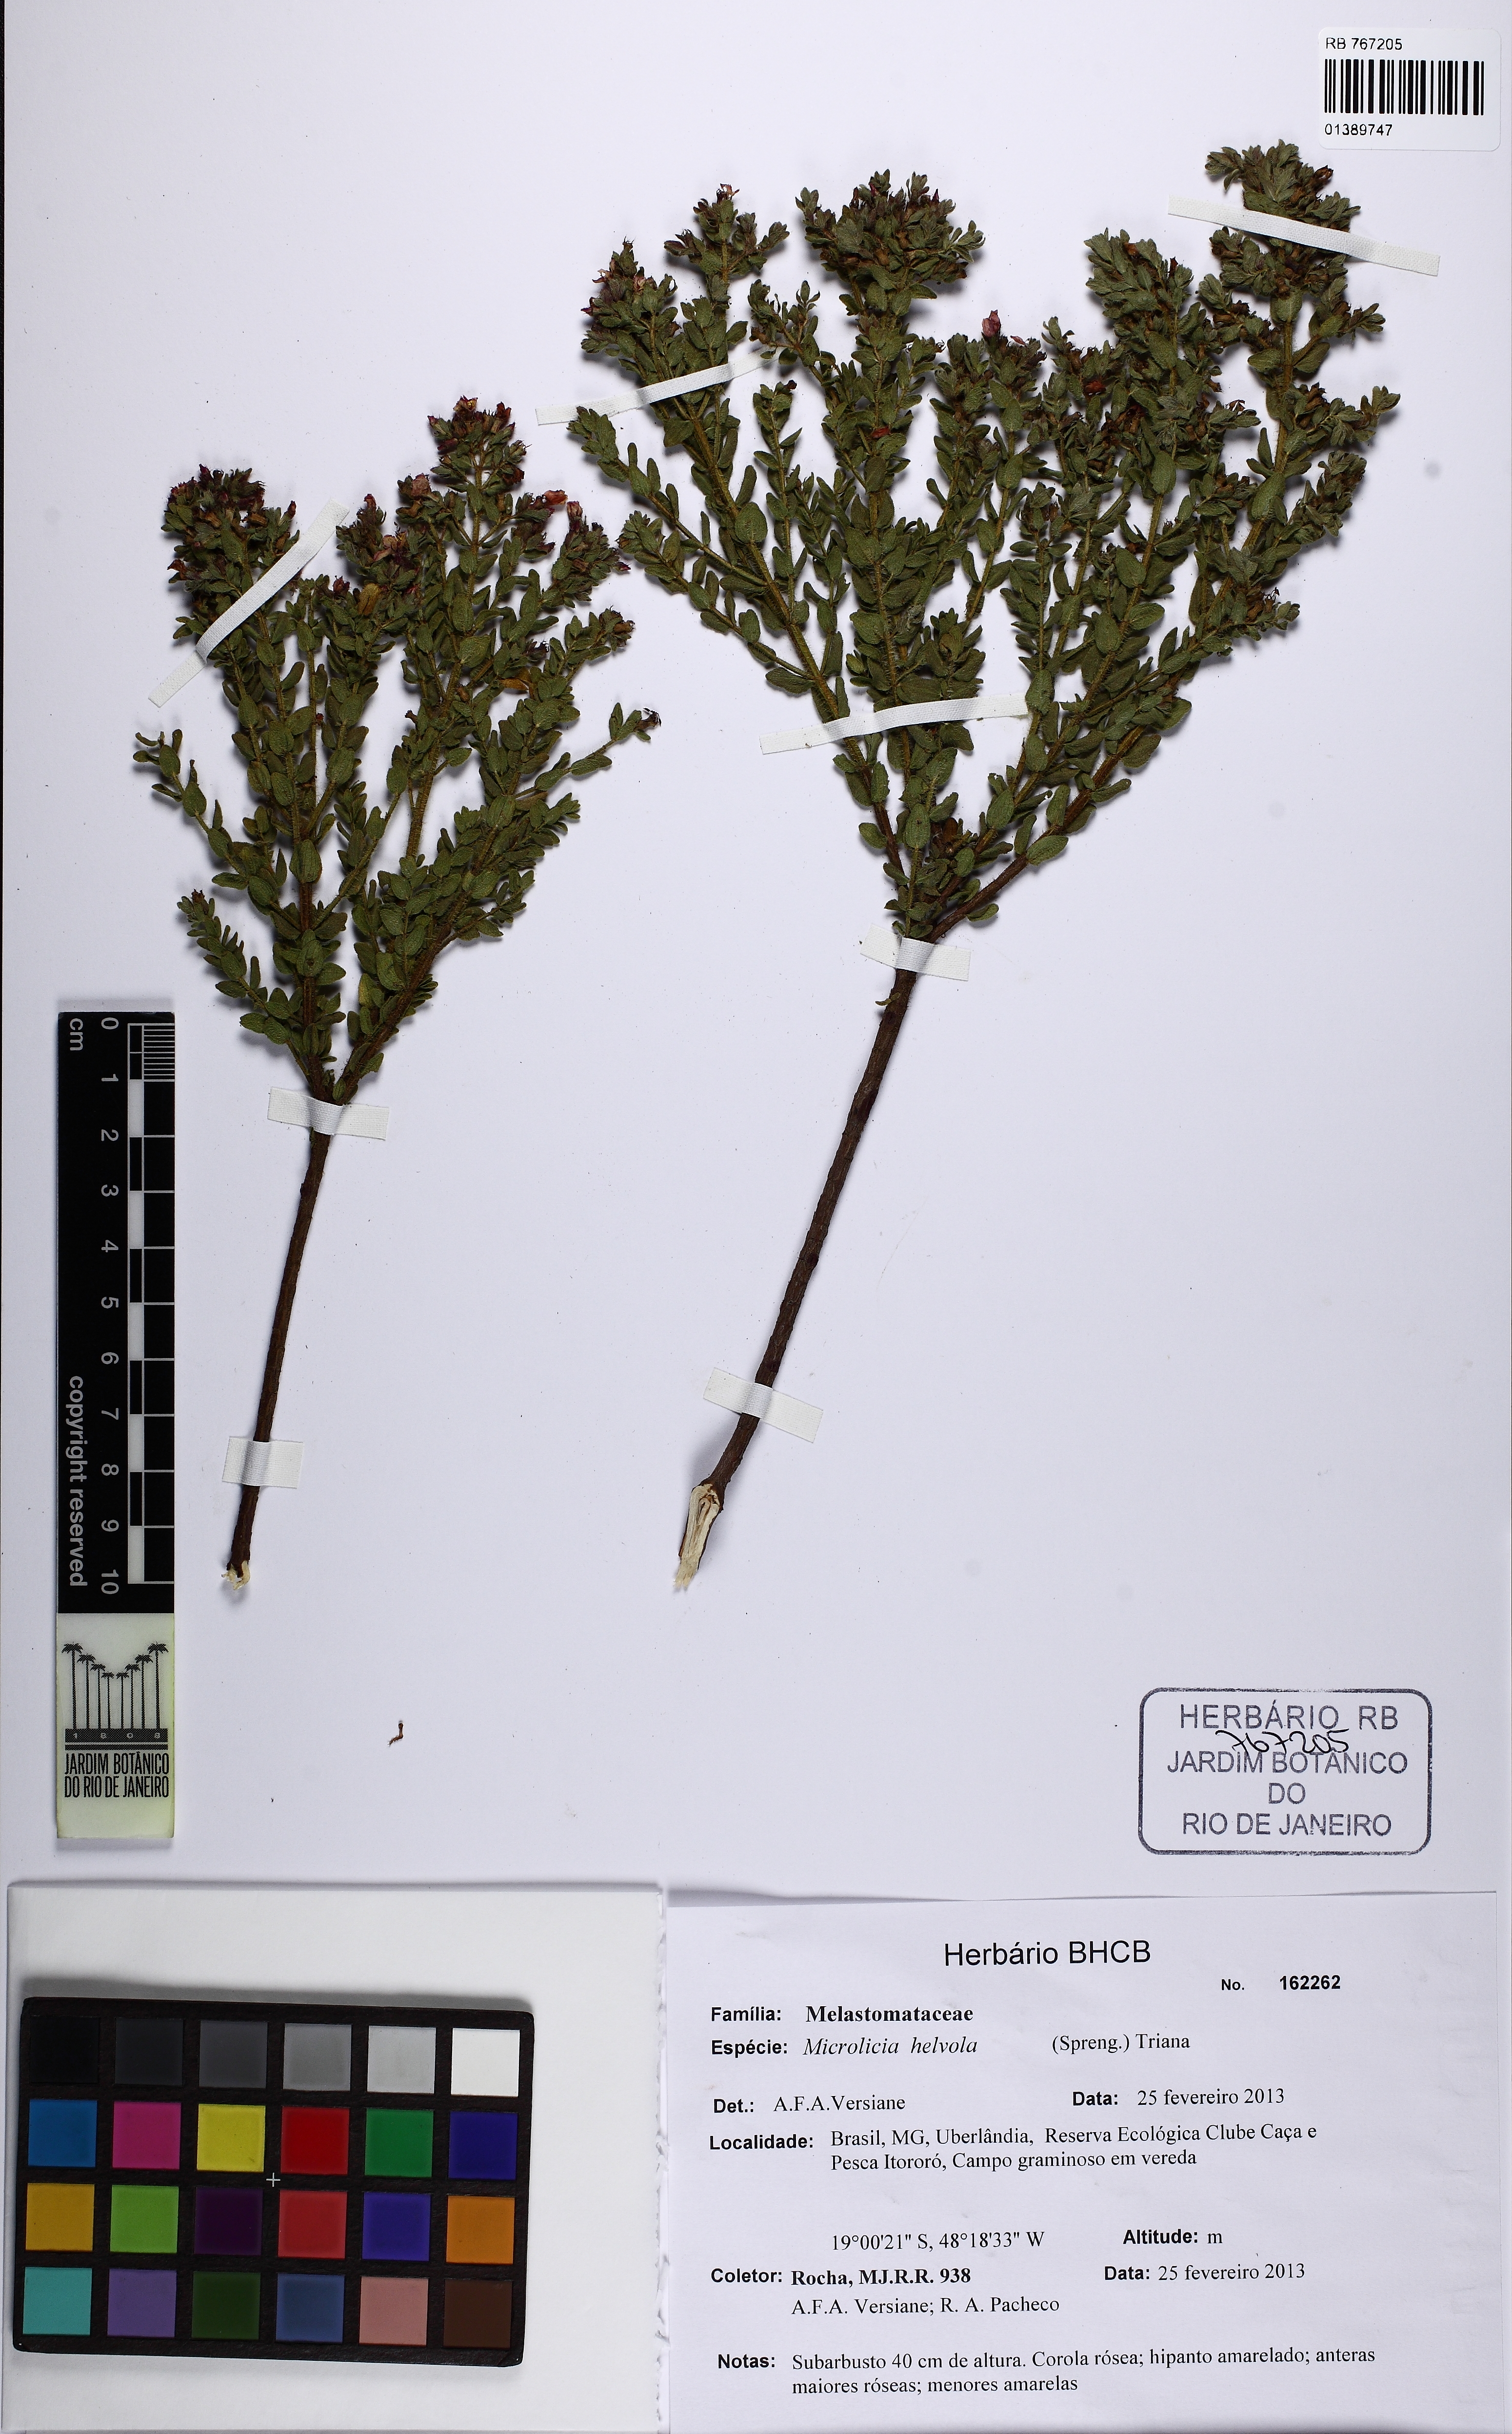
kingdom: Plantae
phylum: Tracheophyta
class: Magnoliopsida
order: Myrtales
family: Melastomataceae
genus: Microlicia
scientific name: Microlicia helvola
